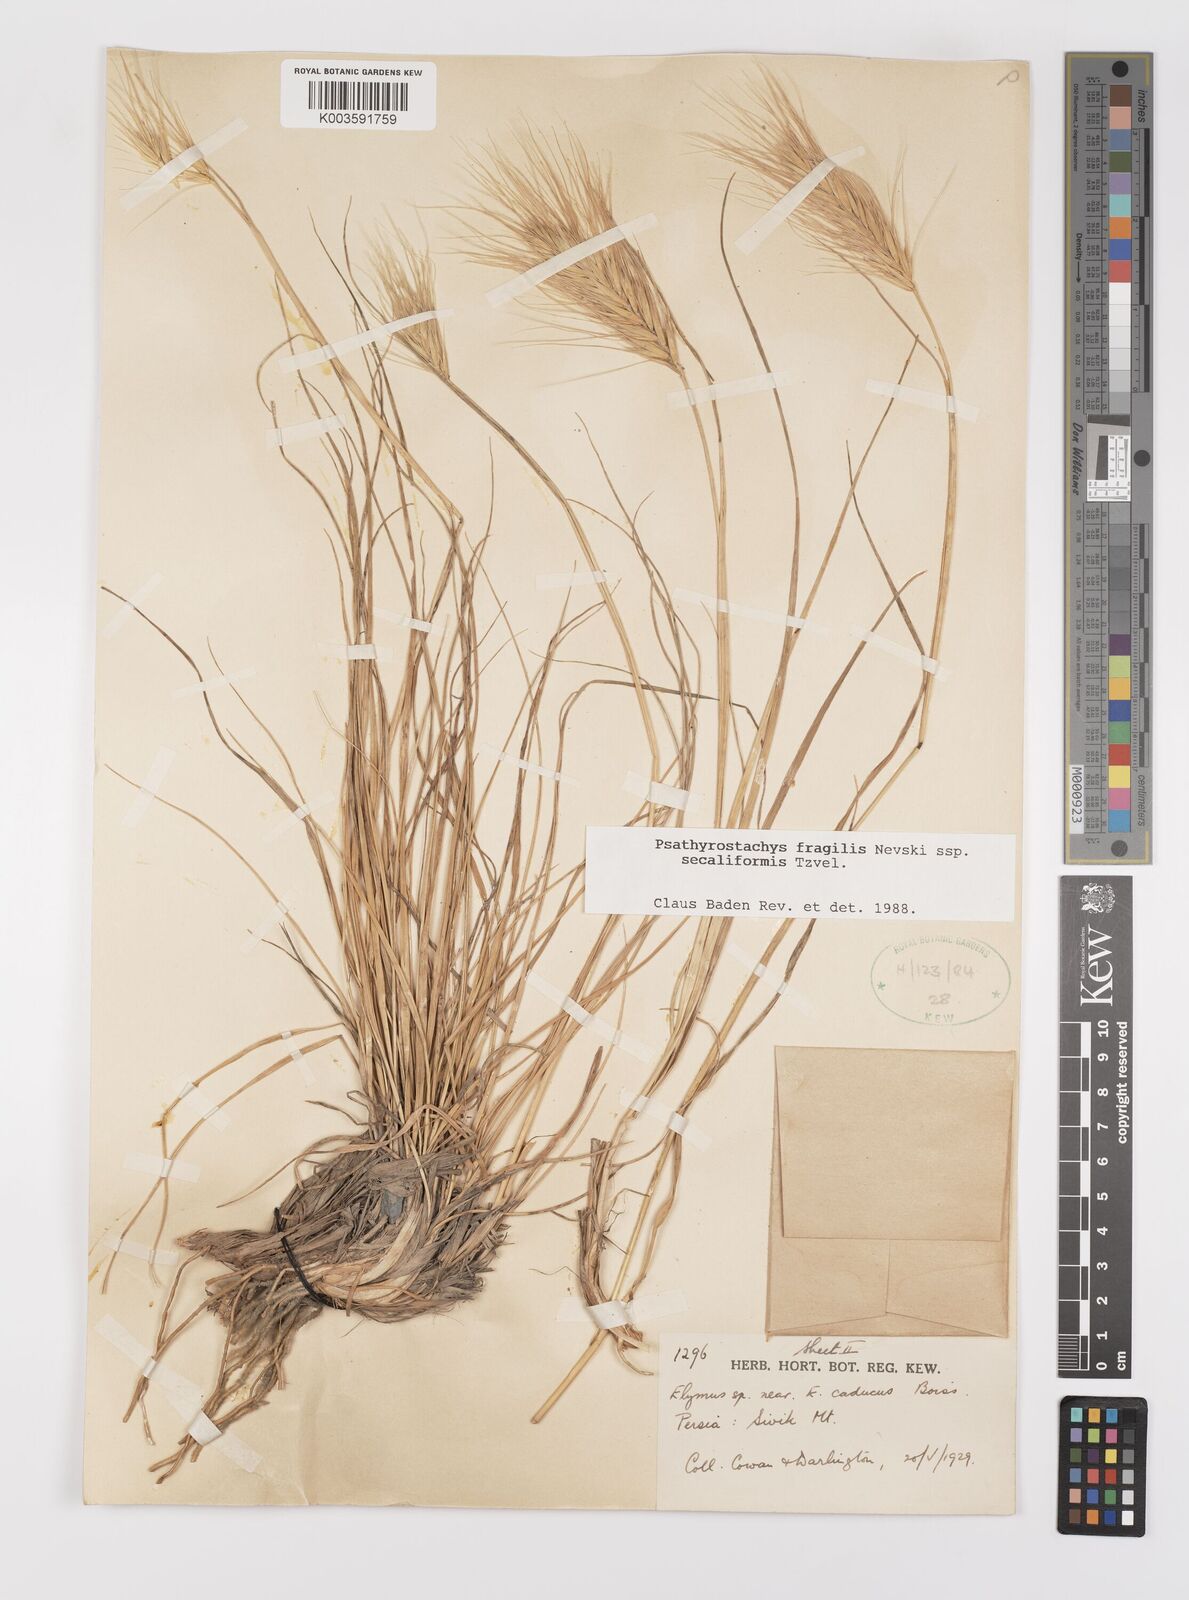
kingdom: Plantae
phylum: Tracheophyta
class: Liliopsida
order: Poales
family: Poaceae
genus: Psathyrostachys
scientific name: Psathyrostachys fragilis
